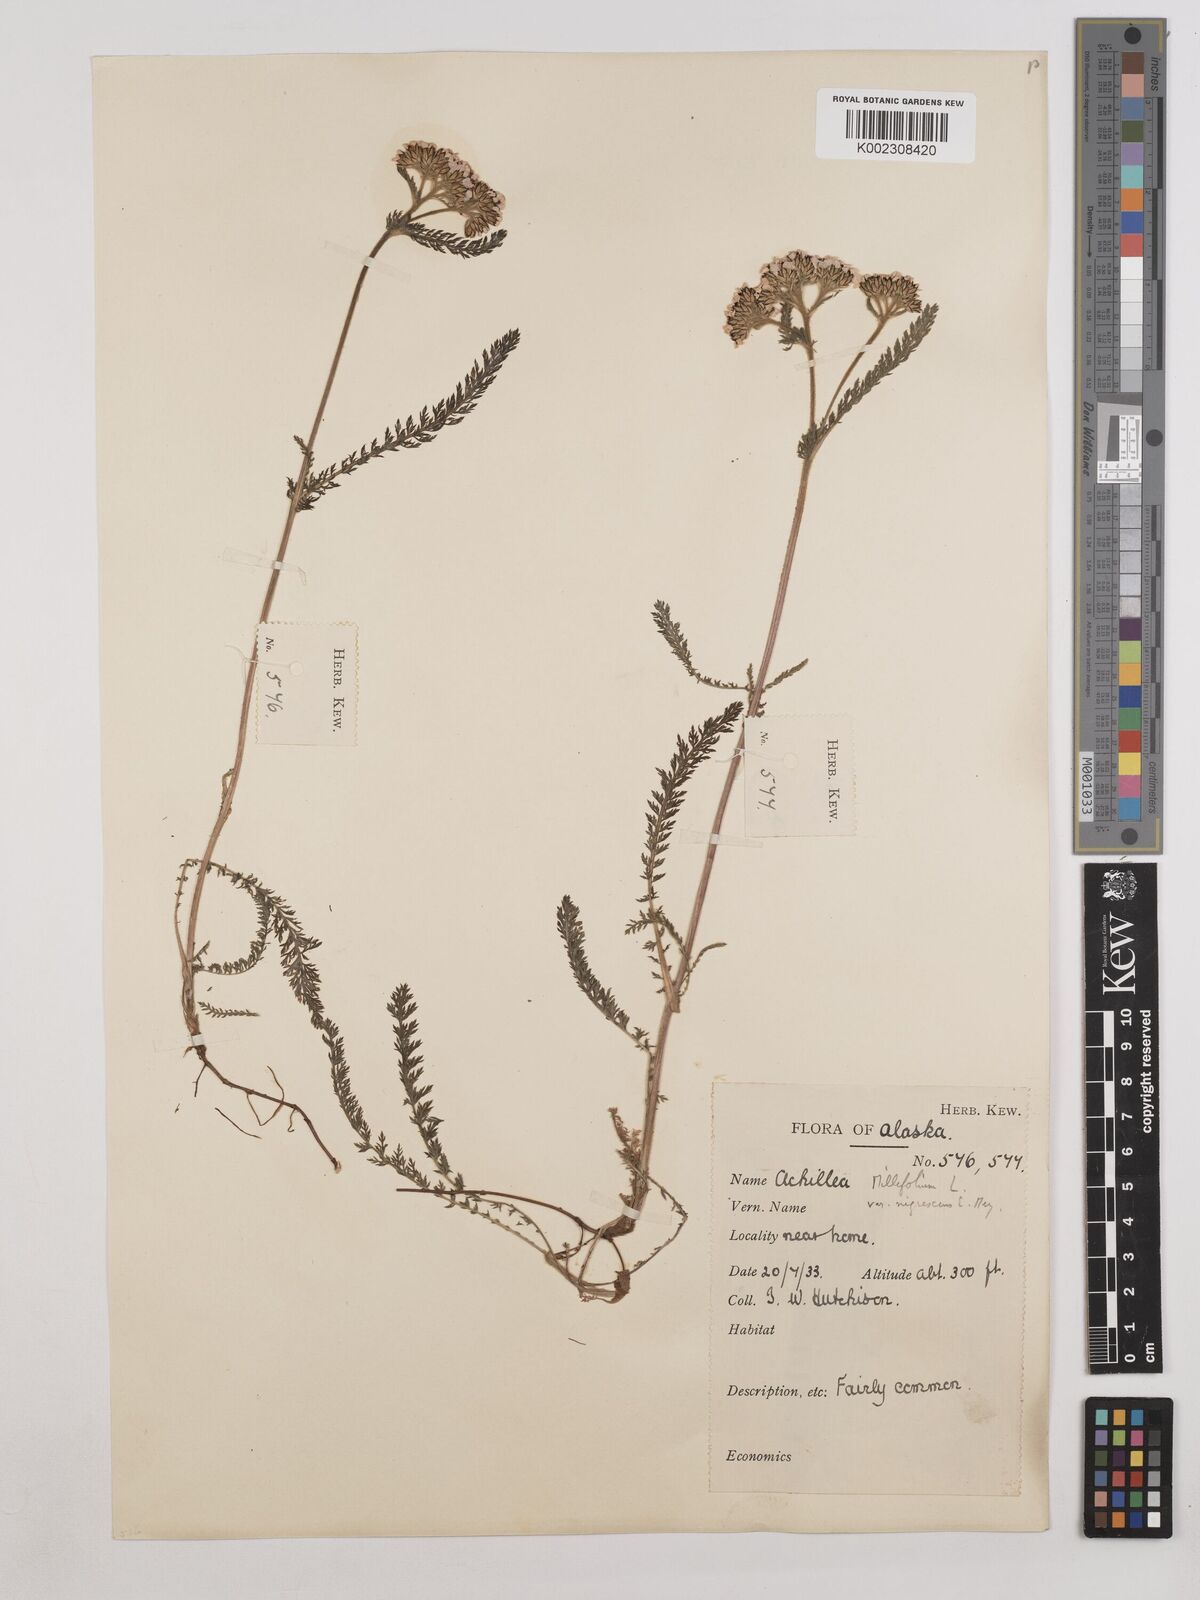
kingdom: Plantae
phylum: Tracheophyta
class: Magnoliopsida
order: Asterales
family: Asteraceae
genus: Achillea
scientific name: Achillea millefolium
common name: Yarrow
